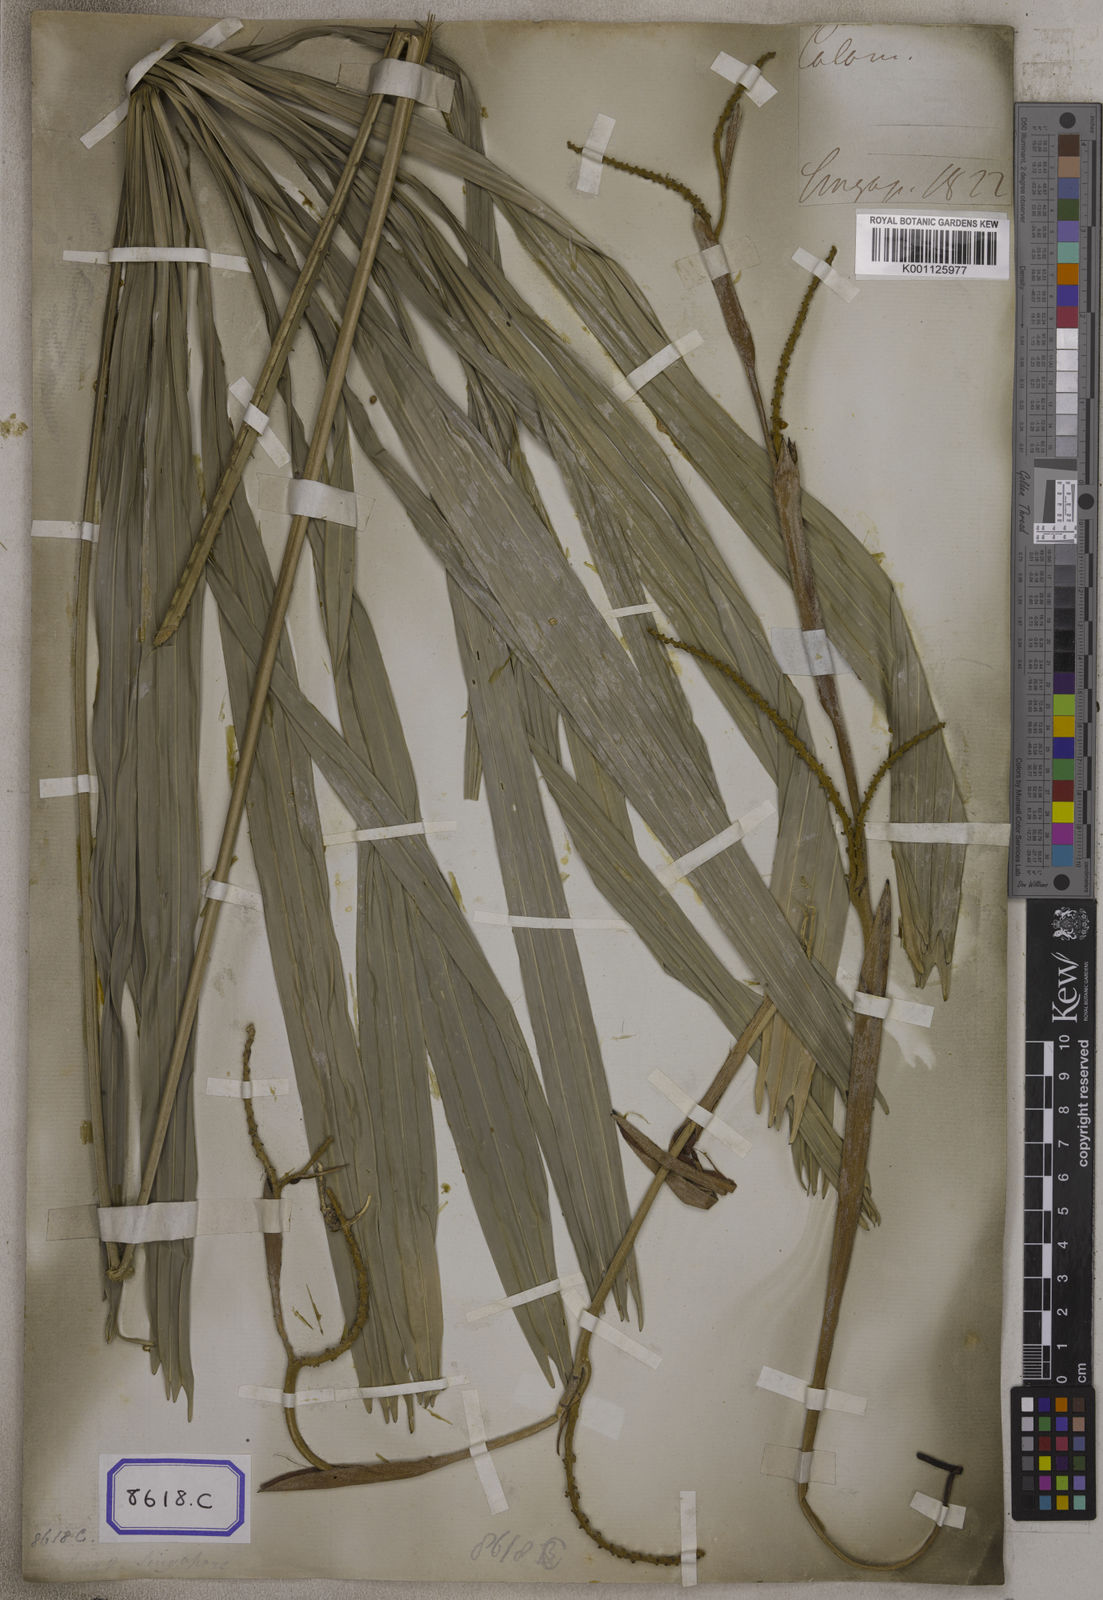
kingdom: Plantae
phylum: Tracheophyta
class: Liliopsida
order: Arecales
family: Arecaceae
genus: Licuala
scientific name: Licuala acutifida
